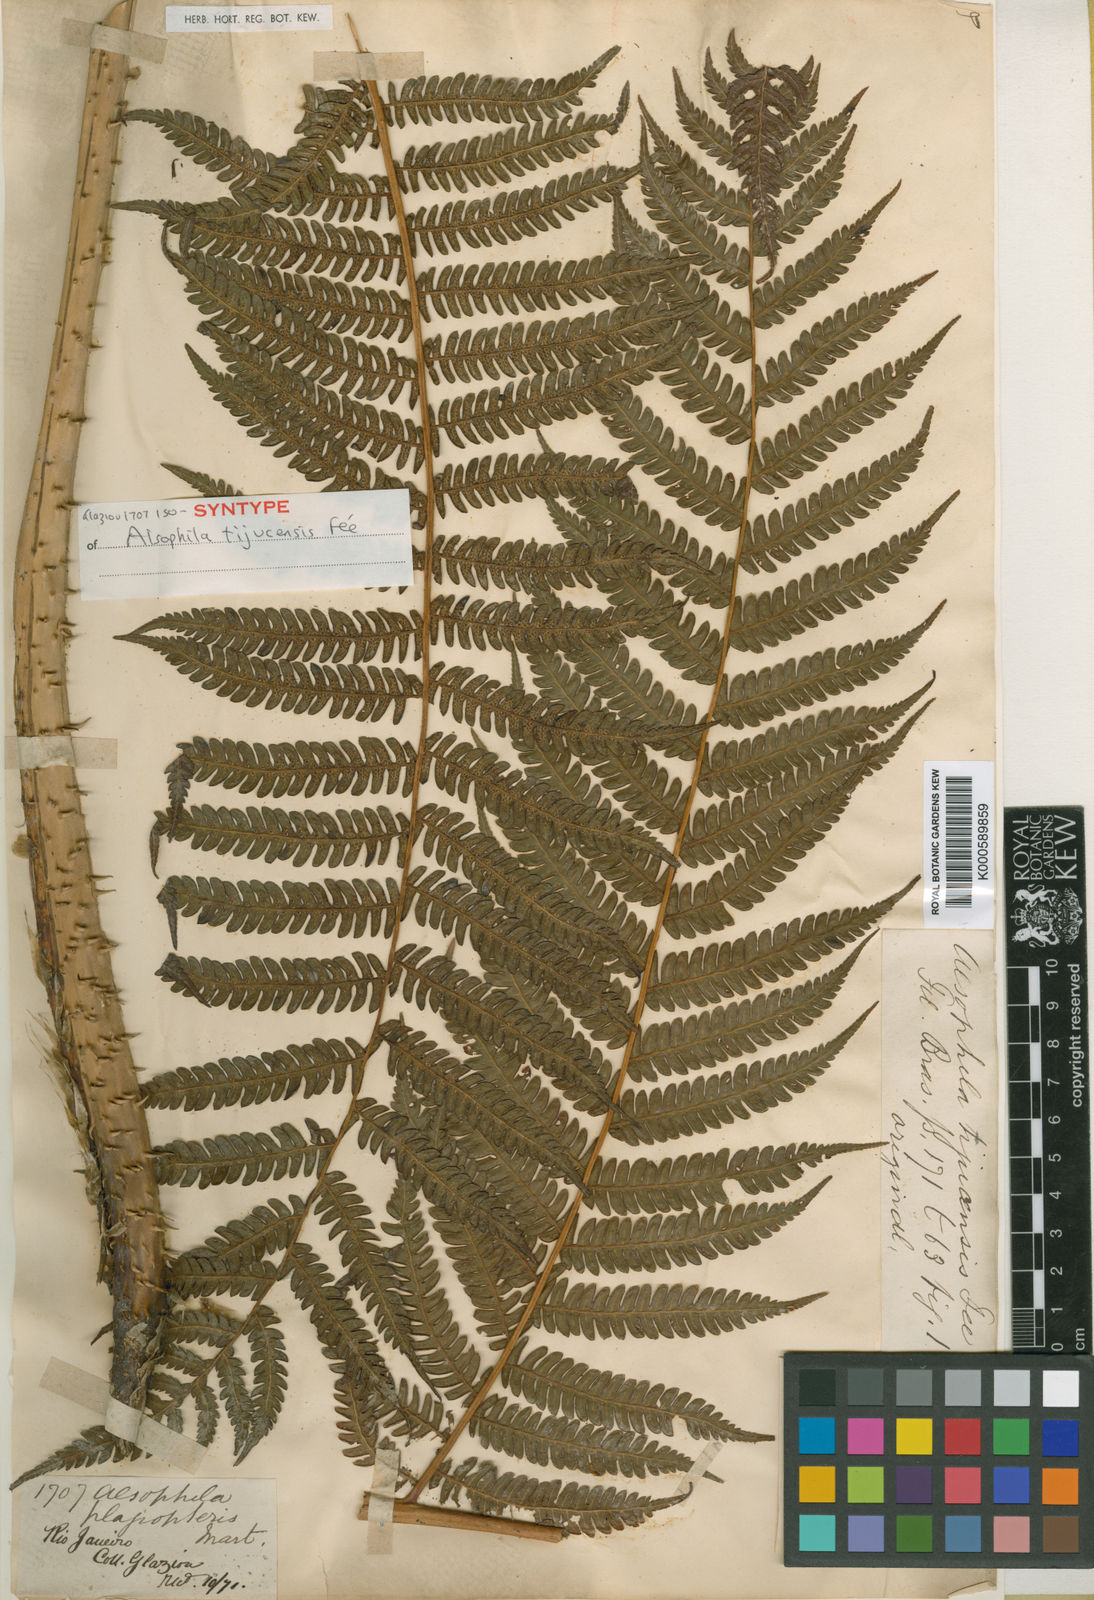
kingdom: Plantae
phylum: Tracheophyta
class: Polypodiopsida
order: Cyatheales
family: Cyatheaceae
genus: Alsophila
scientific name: Alsophila engelii
